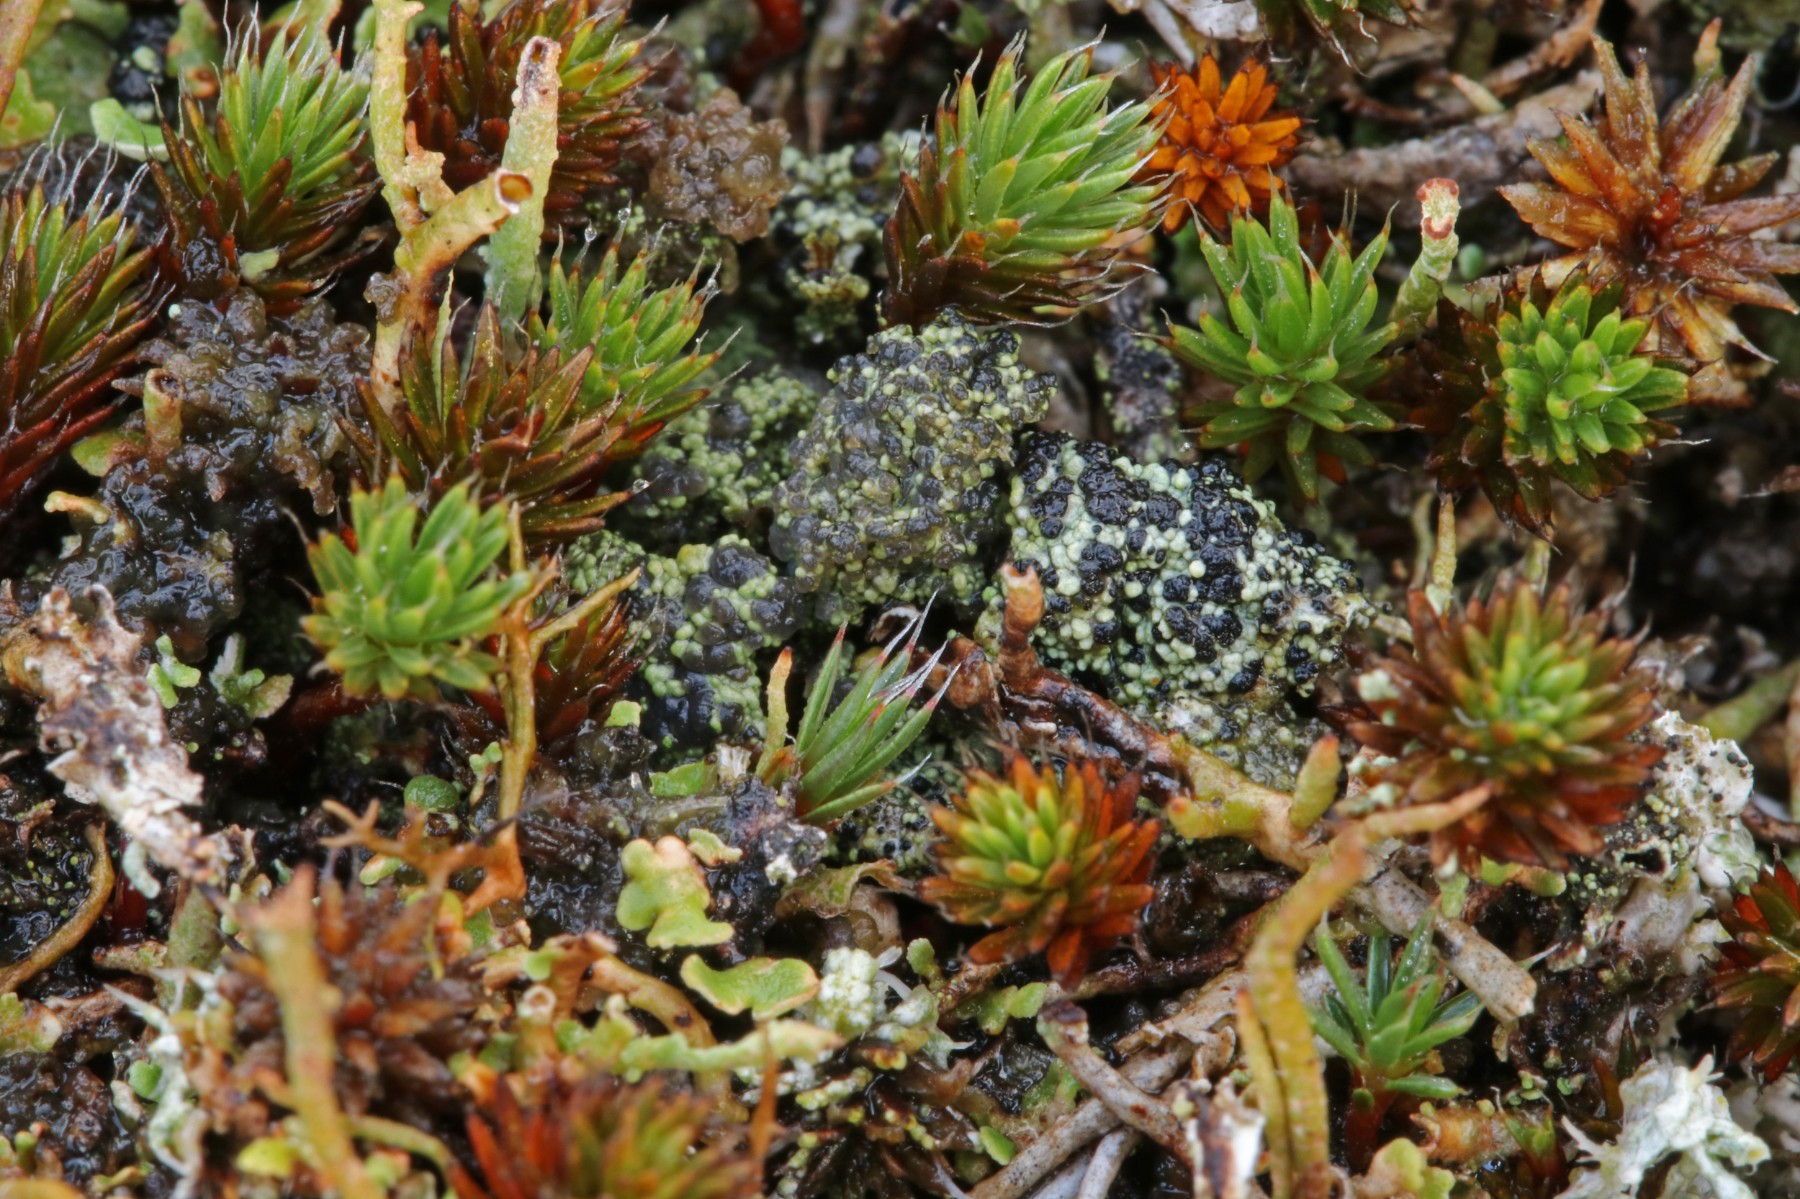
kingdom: Fungi
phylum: Ascomycota
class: Lecanoromycetes
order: Lecanorales
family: Byssolomataceae
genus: Micarea
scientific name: Micarea lignaria
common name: tørve-knaplav
